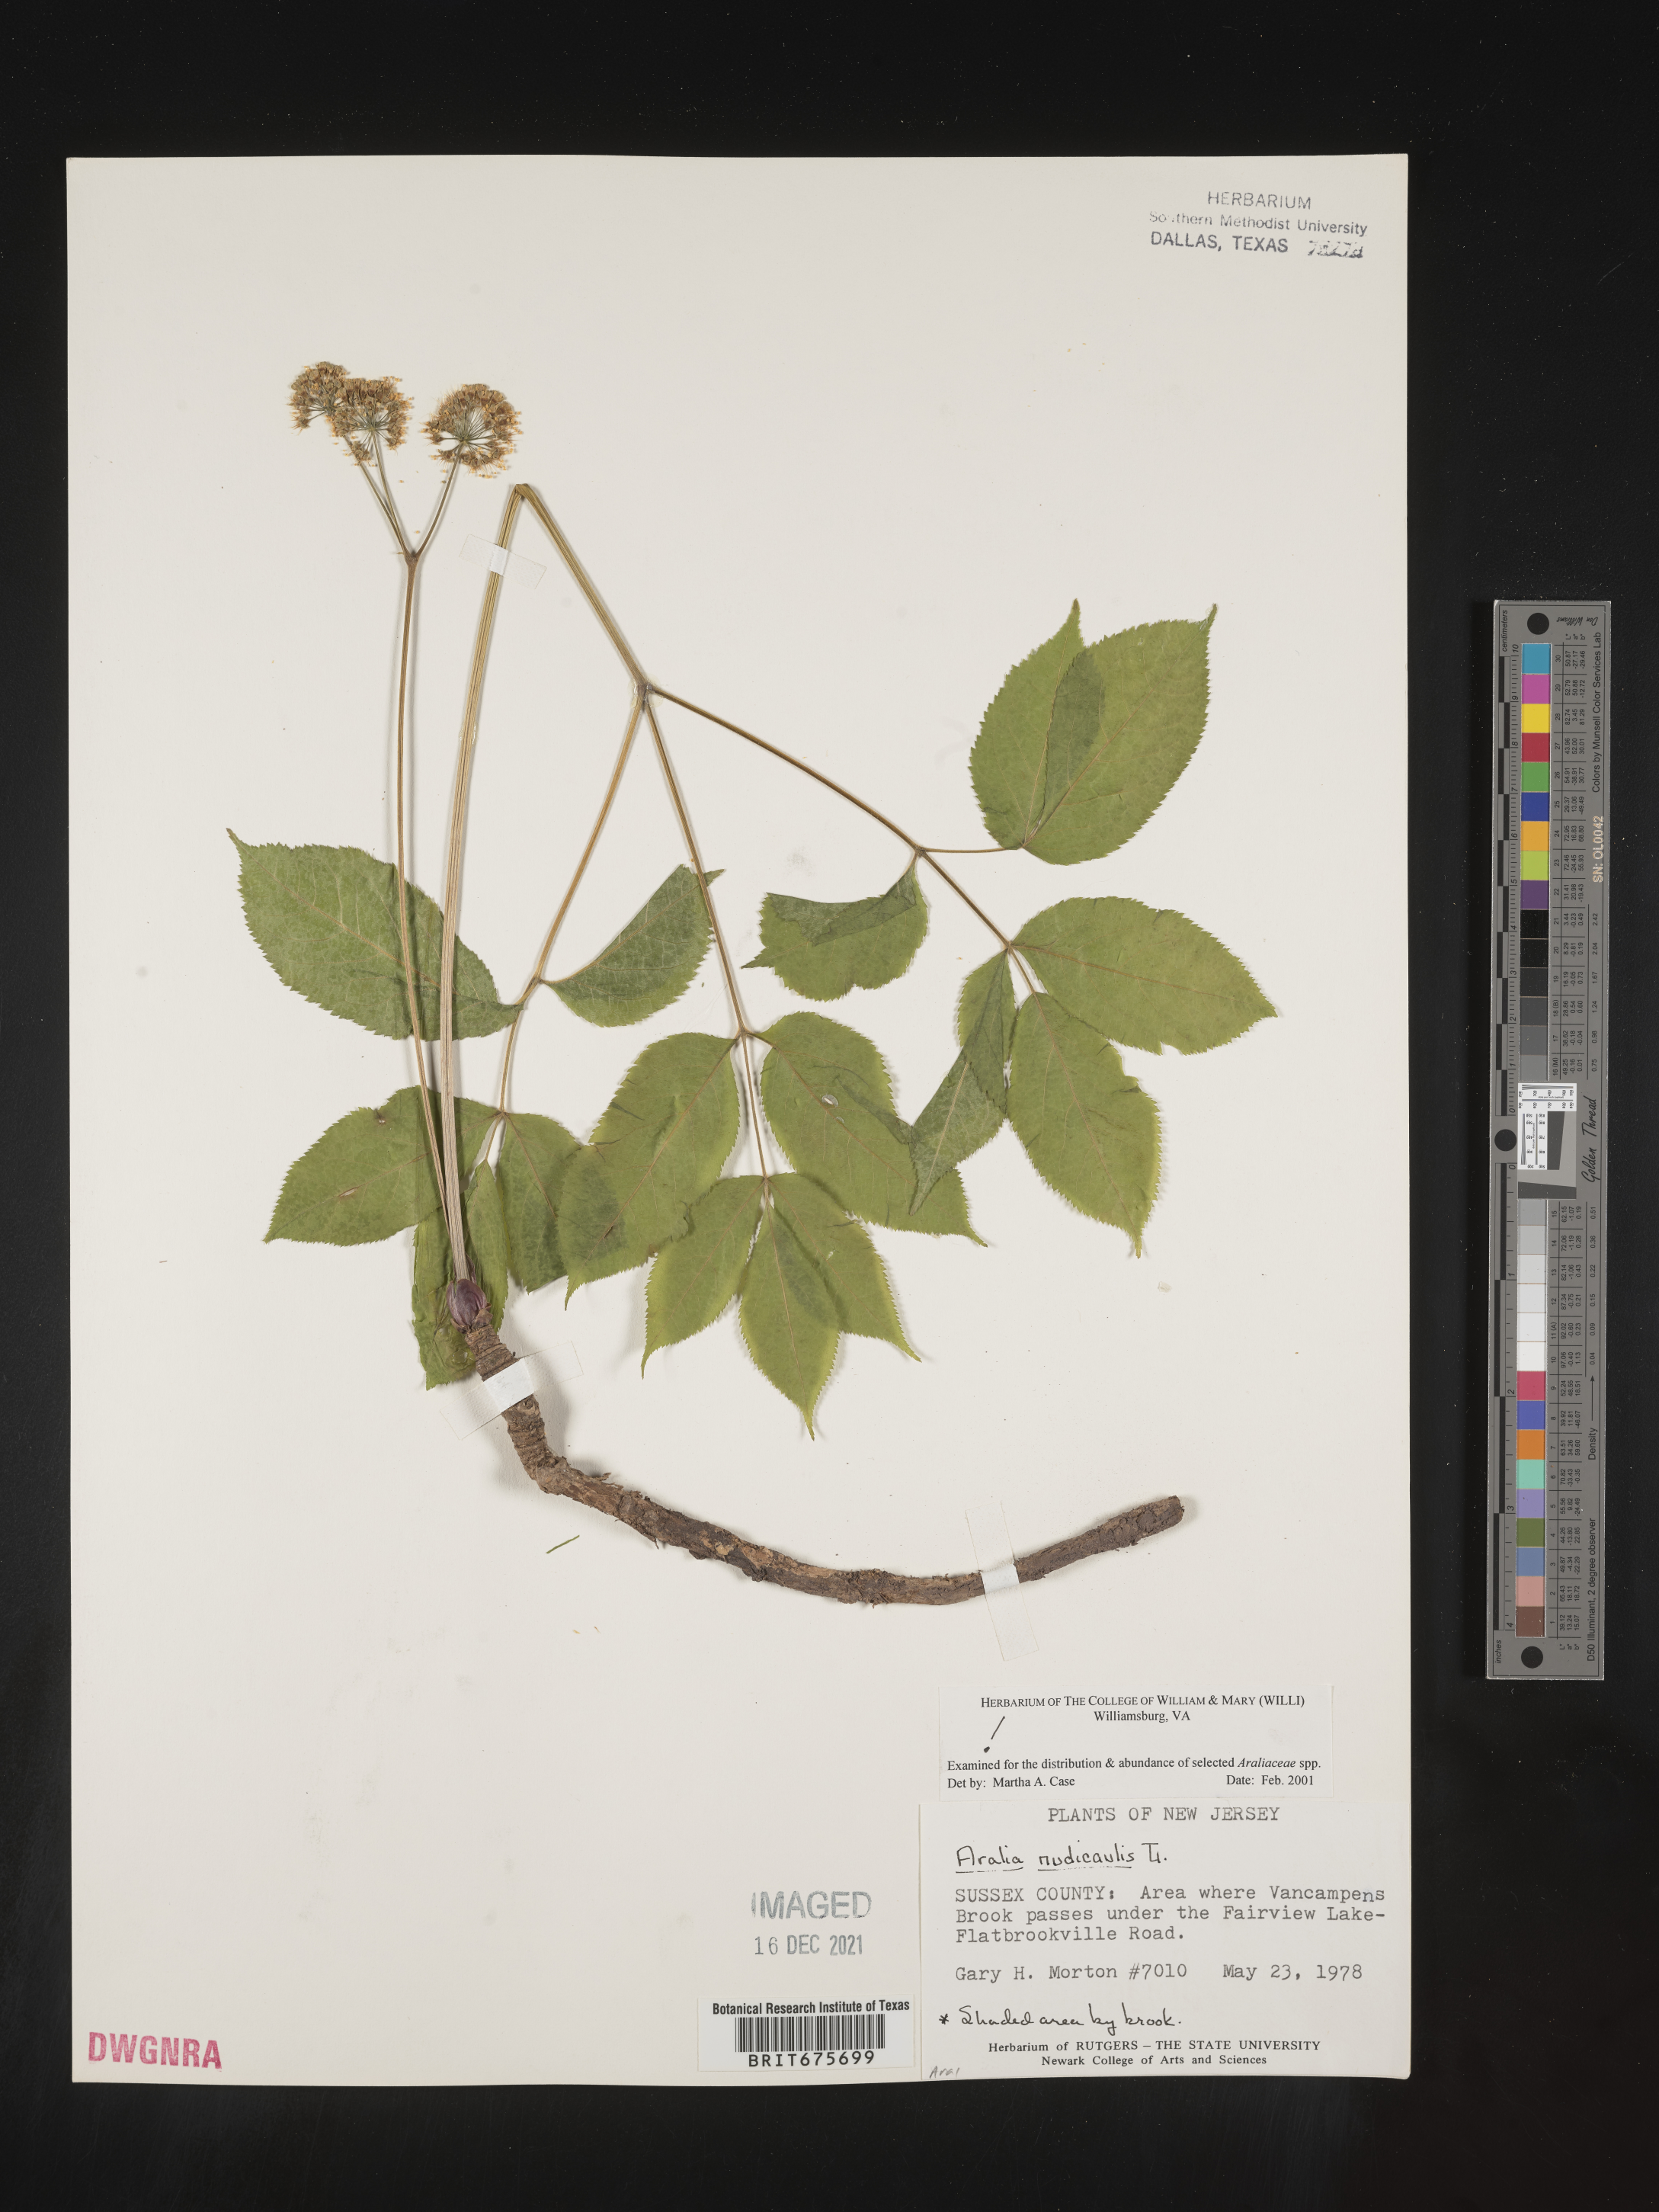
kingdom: Plantae
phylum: Tracheophyta
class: Magnoliopsida
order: Apiales
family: Araliaceae
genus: Aralia
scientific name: Aralia nudicaulis
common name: Wild sarsaparilla
